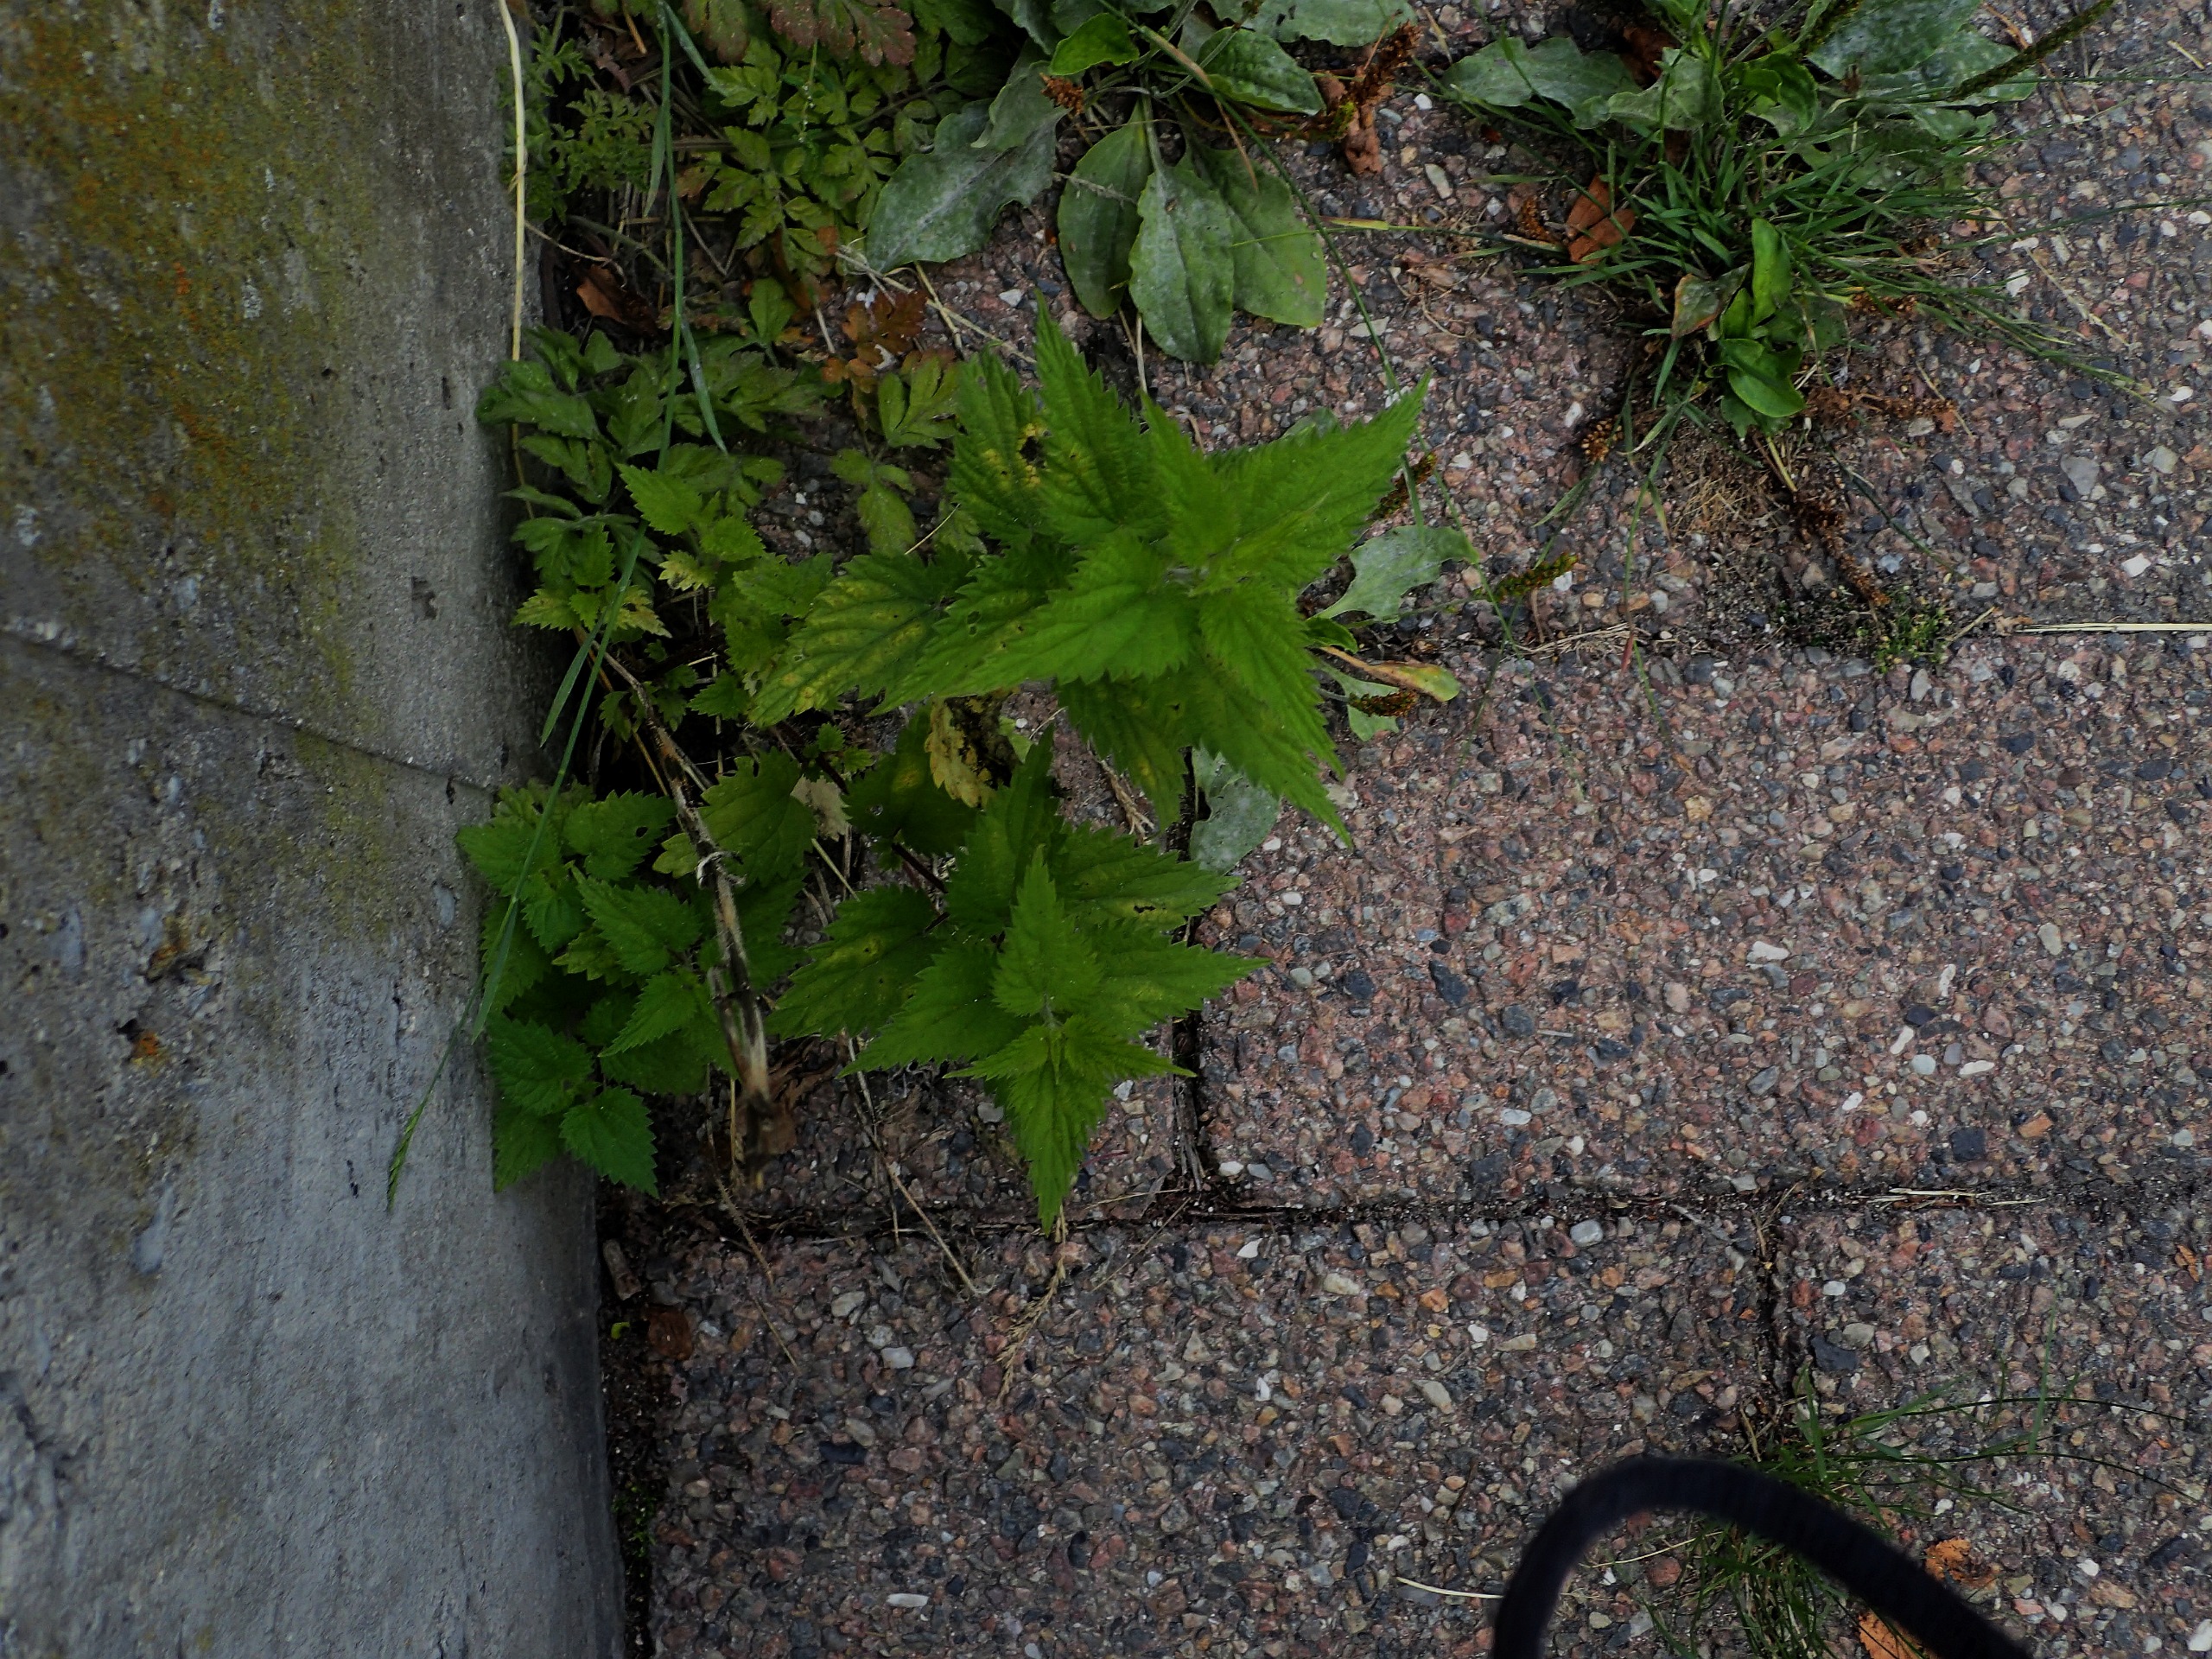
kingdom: Plantae
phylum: Tracheophyta
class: Magnoliopsida
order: Rosales
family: Urticaceae
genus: Urtica
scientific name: Urtica dioica
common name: Stor nælde
